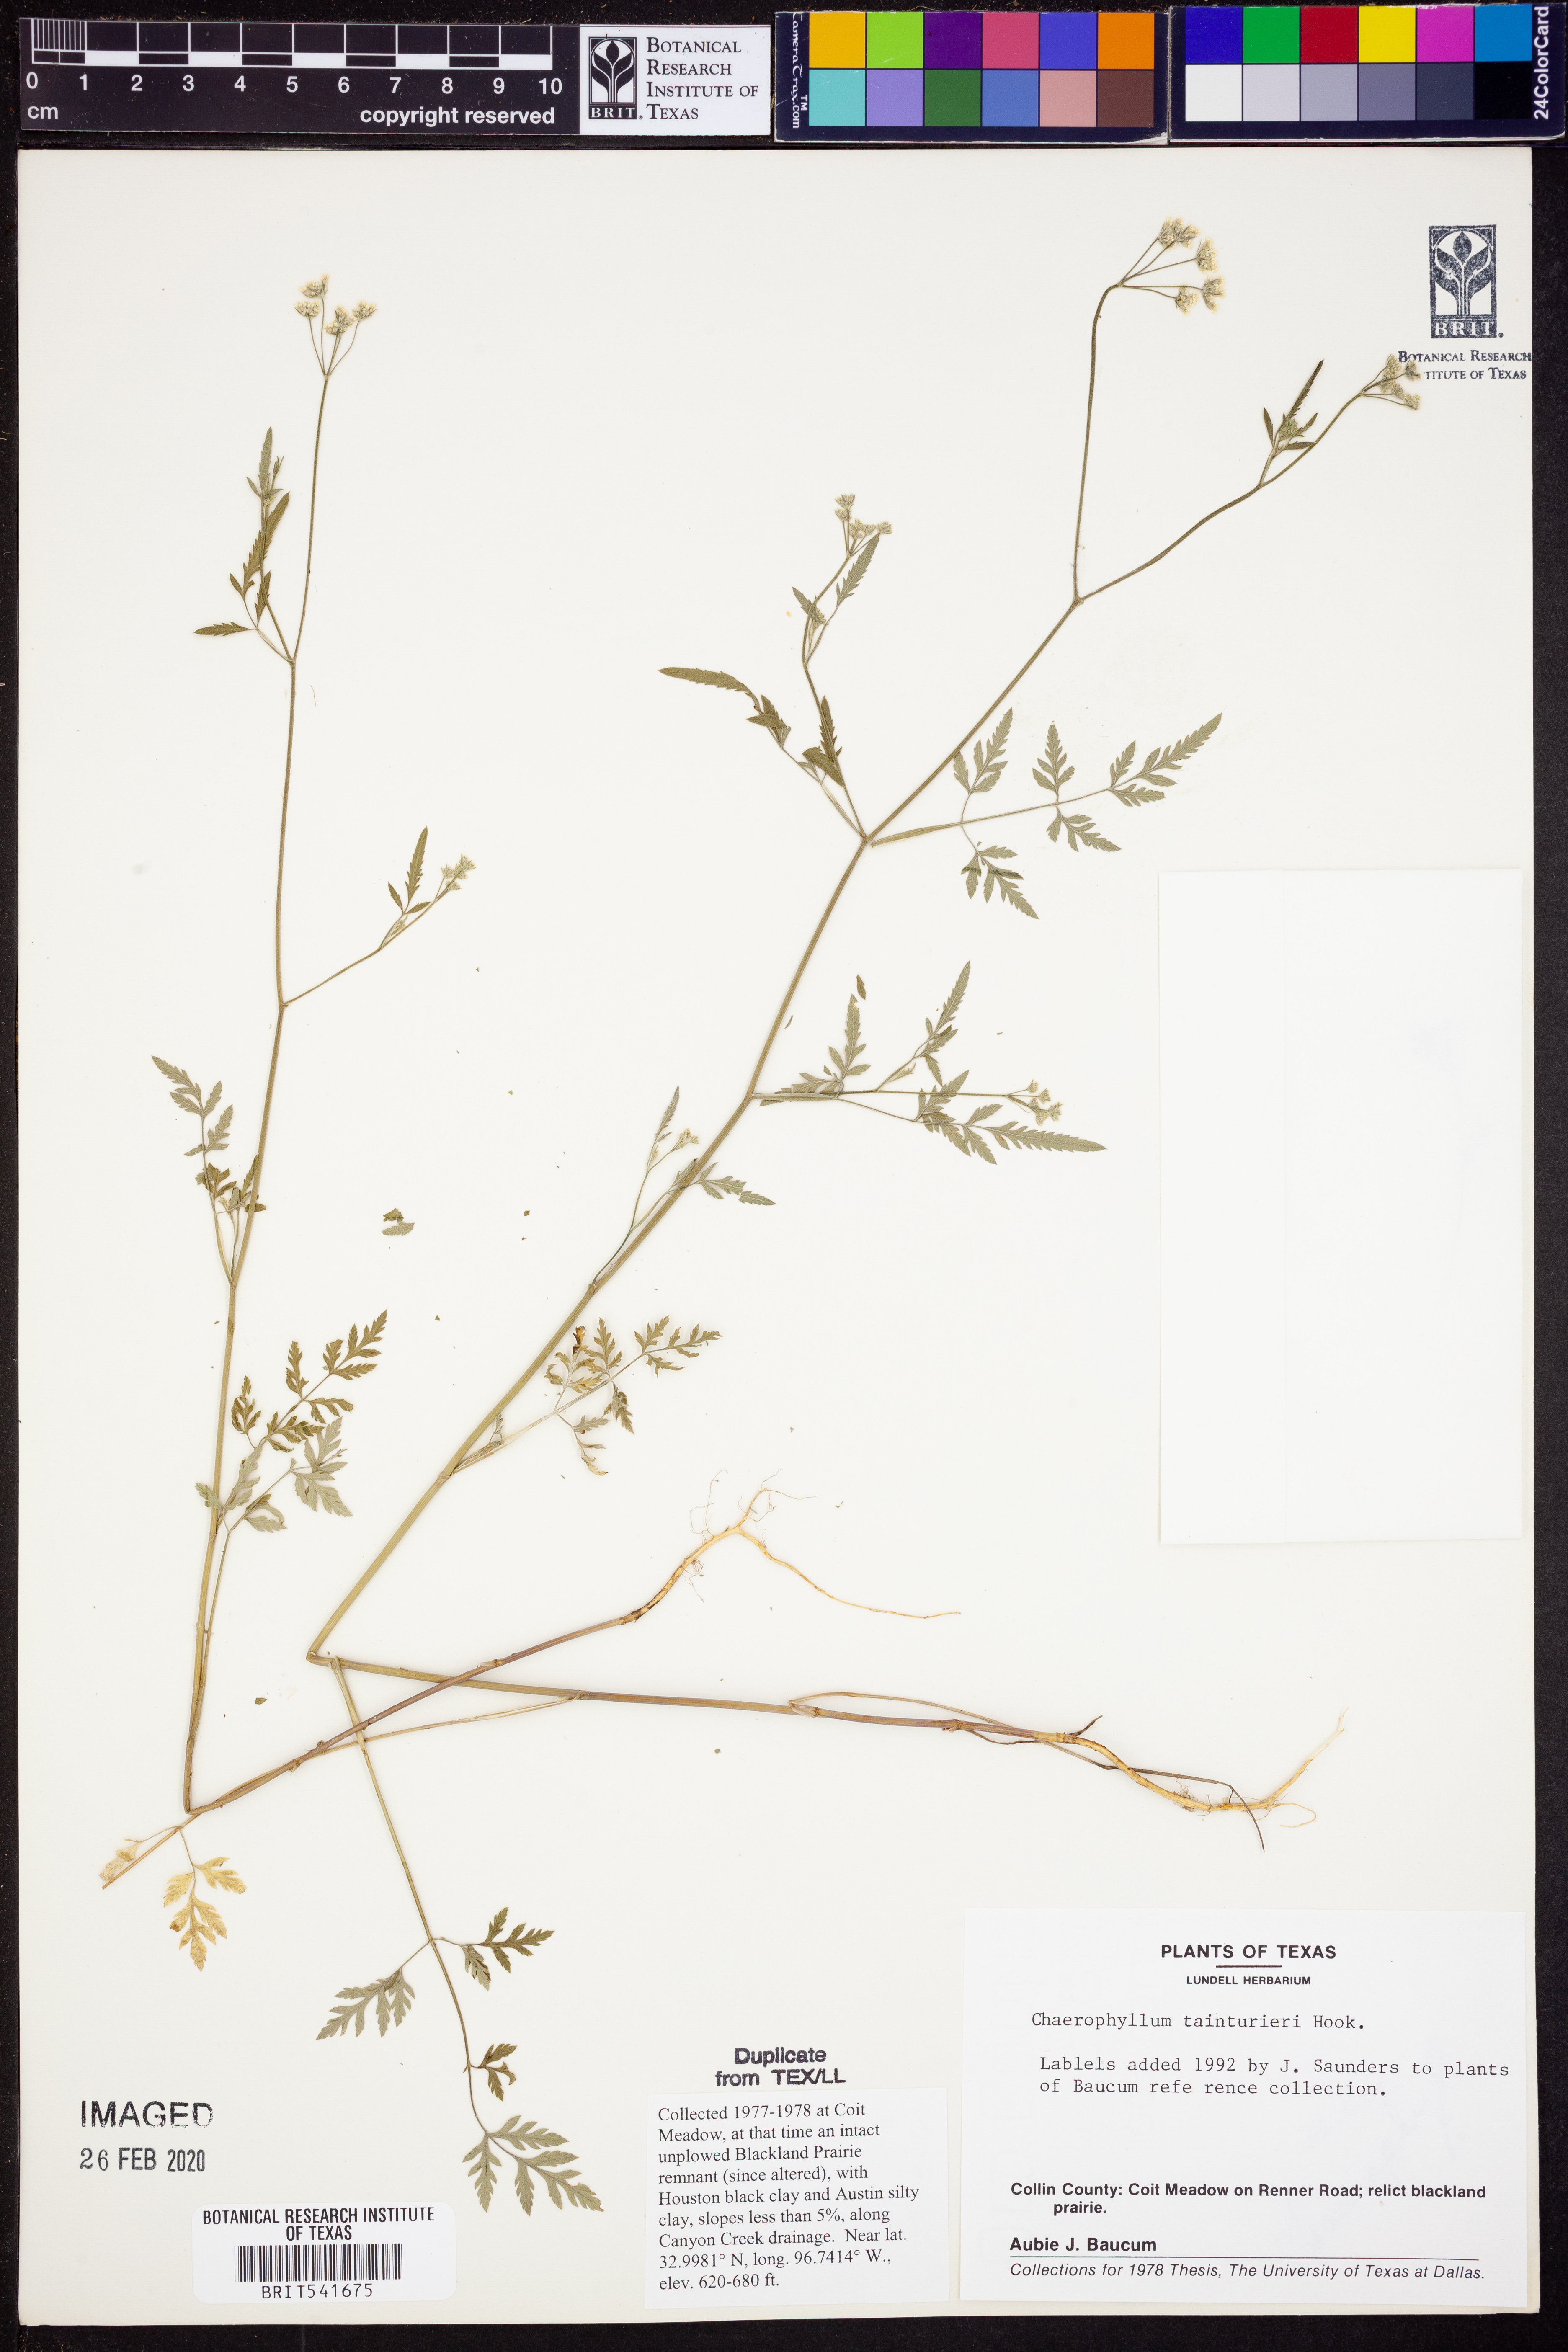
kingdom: Plantae
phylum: Tracheophyta
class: Magnoliopsida
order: Apiales
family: Apiaceae
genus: Chaerophyllum
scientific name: Chaerophyllum tainturieri
